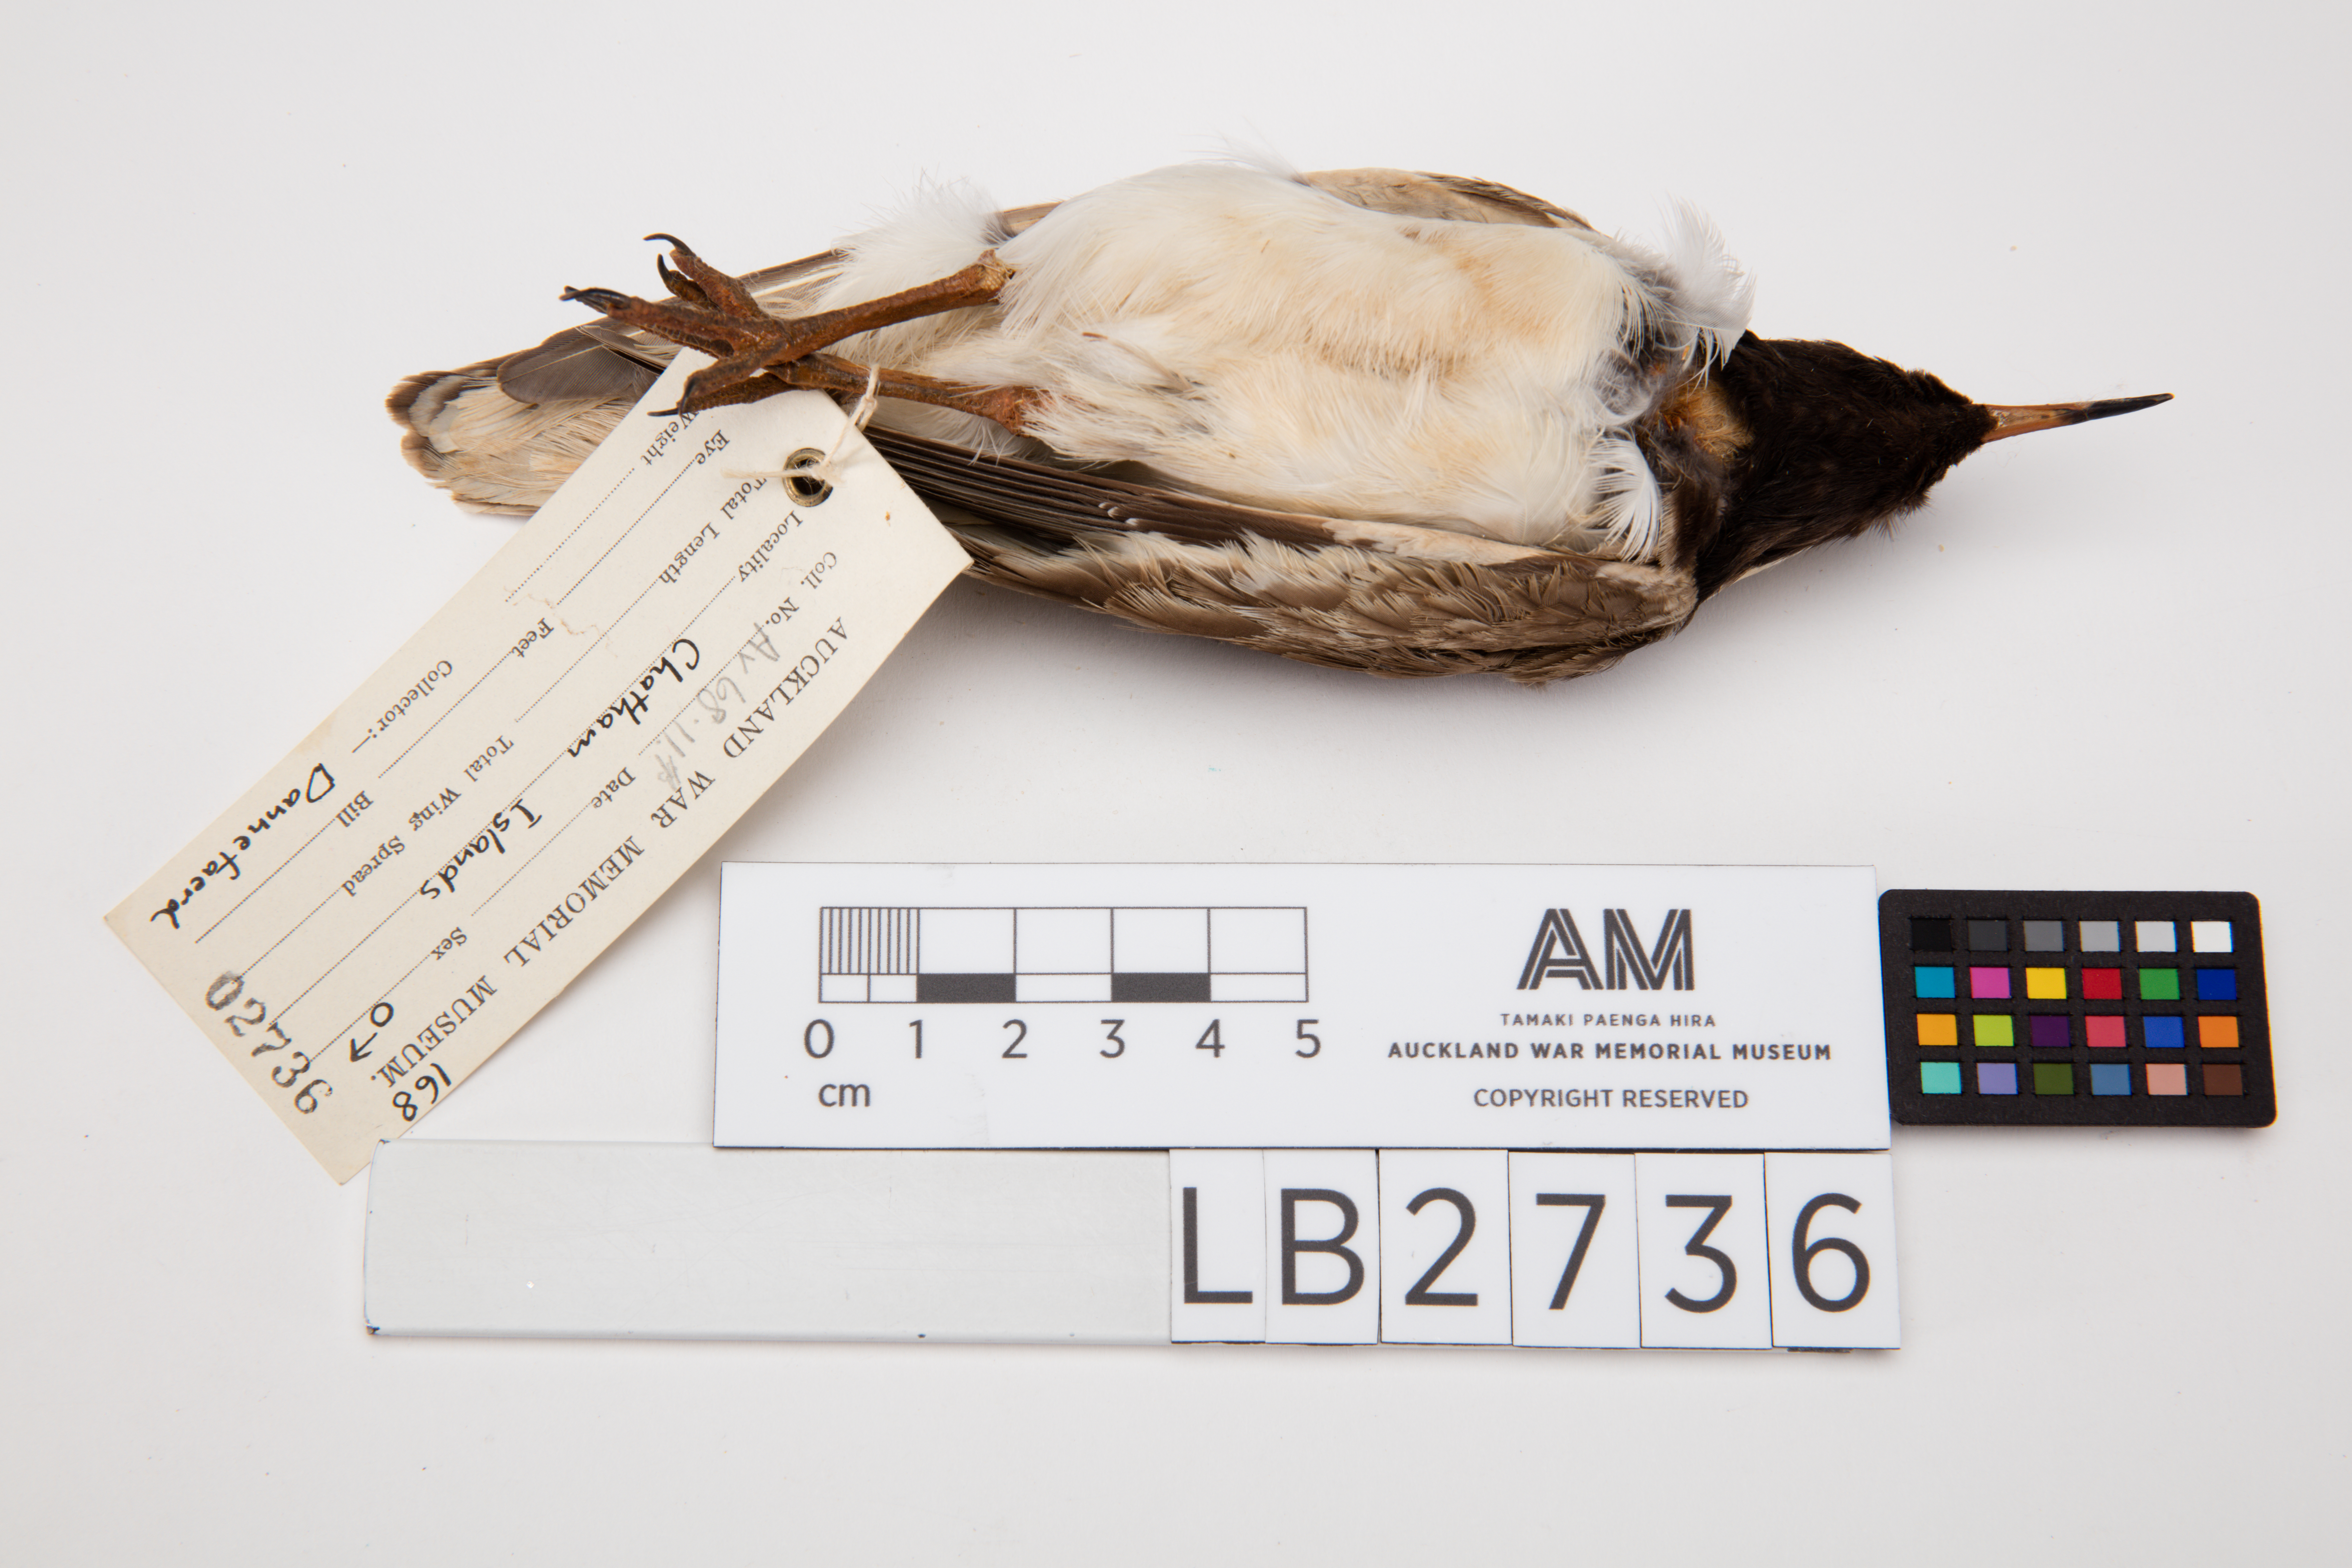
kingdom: Animalia
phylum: Chordata
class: Aves
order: Charadriiformes
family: Charadriidae
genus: Thinornis
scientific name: Thinornis novaeseelandiae
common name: Shore dotterel
